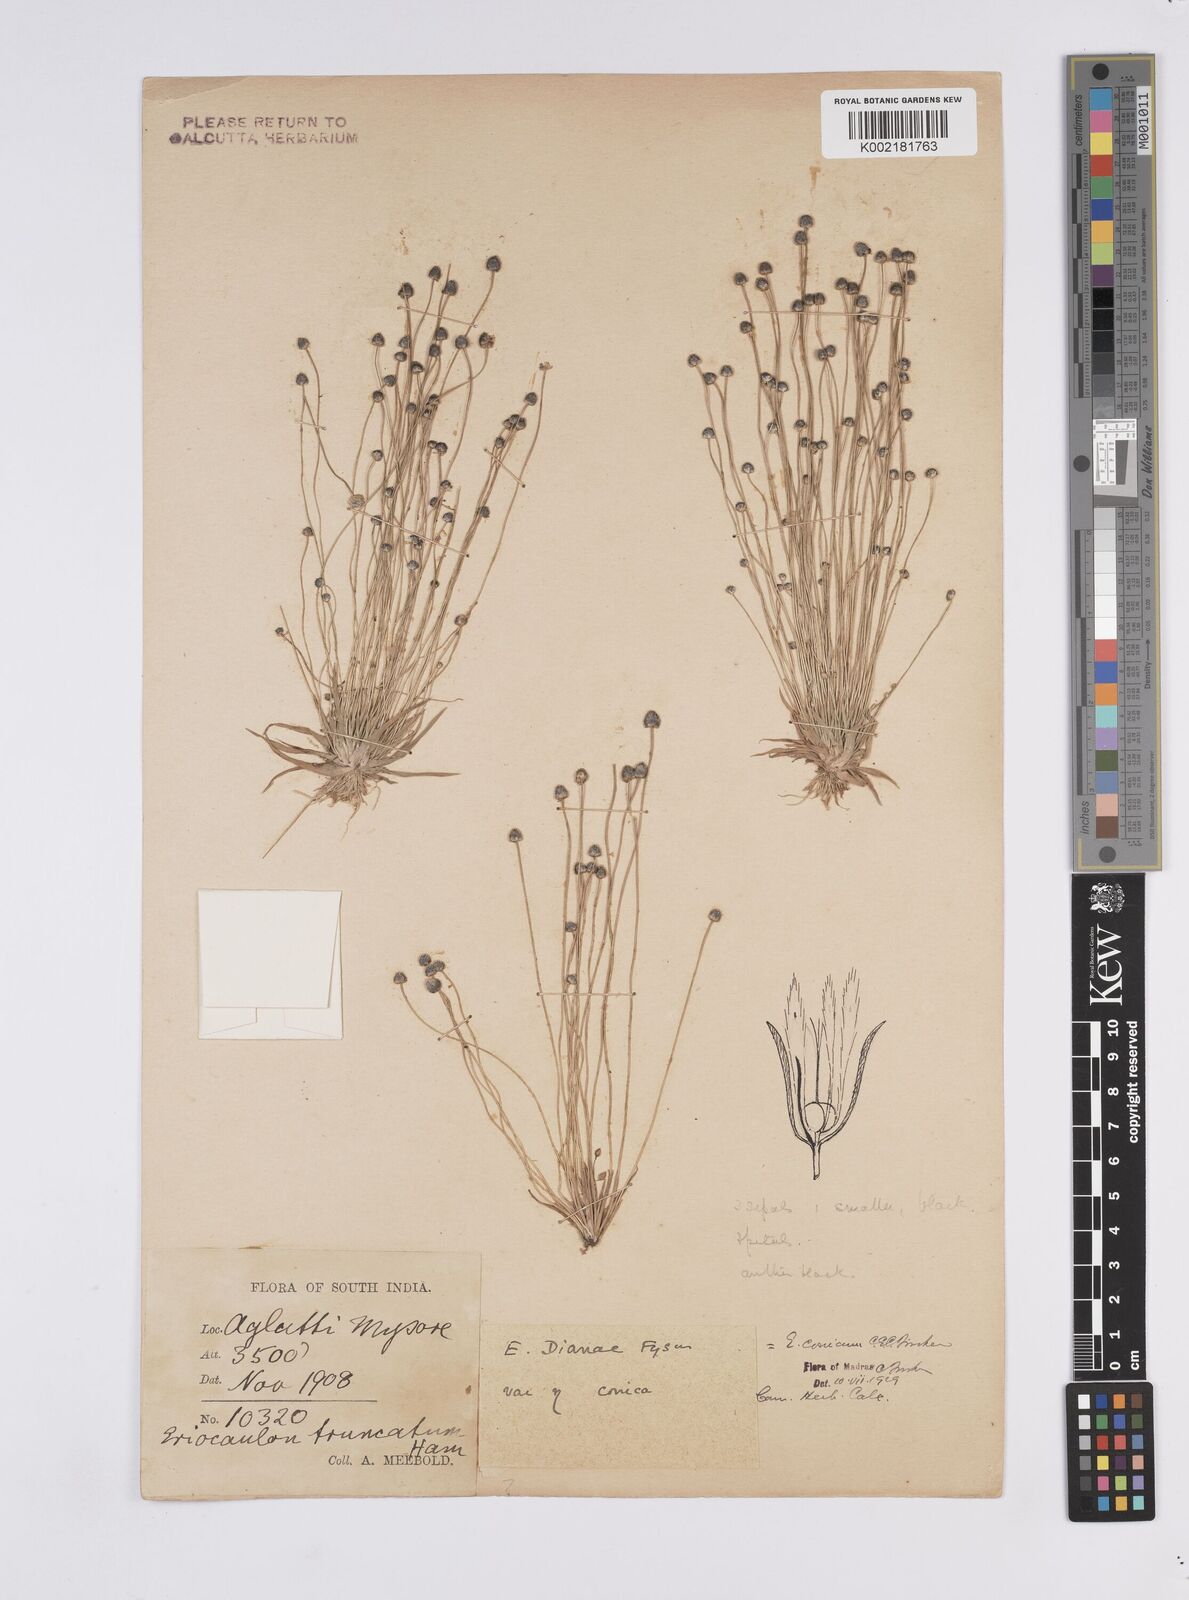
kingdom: Plantae
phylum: Tracheophyta
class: Liliopsida
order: Poales
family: Eriocaulaceae
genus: Eriocaulon
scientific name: Eriocaulon conicum
